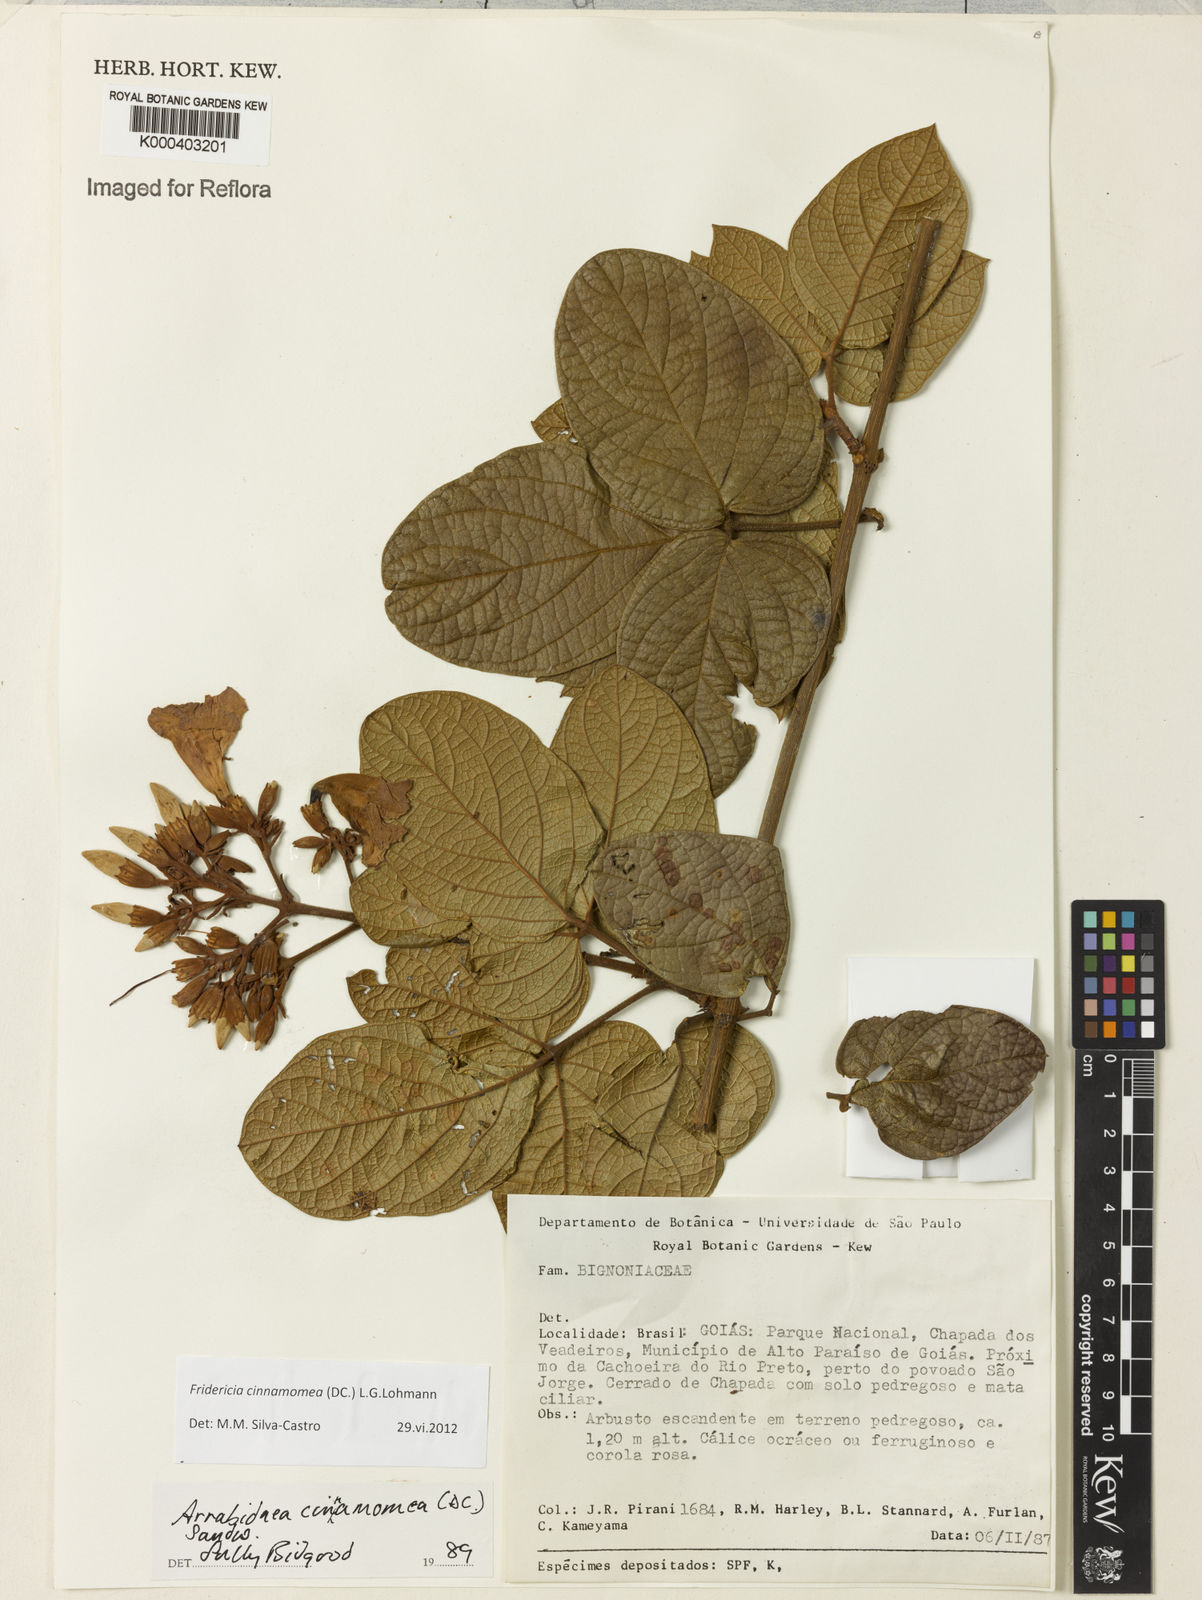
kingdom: Plantae
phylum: Tracheophyta
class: Magnoliopsida
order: Lamiales
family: Bignoniaceae
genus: Fridericia
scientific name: Fridericia cinnamomea
